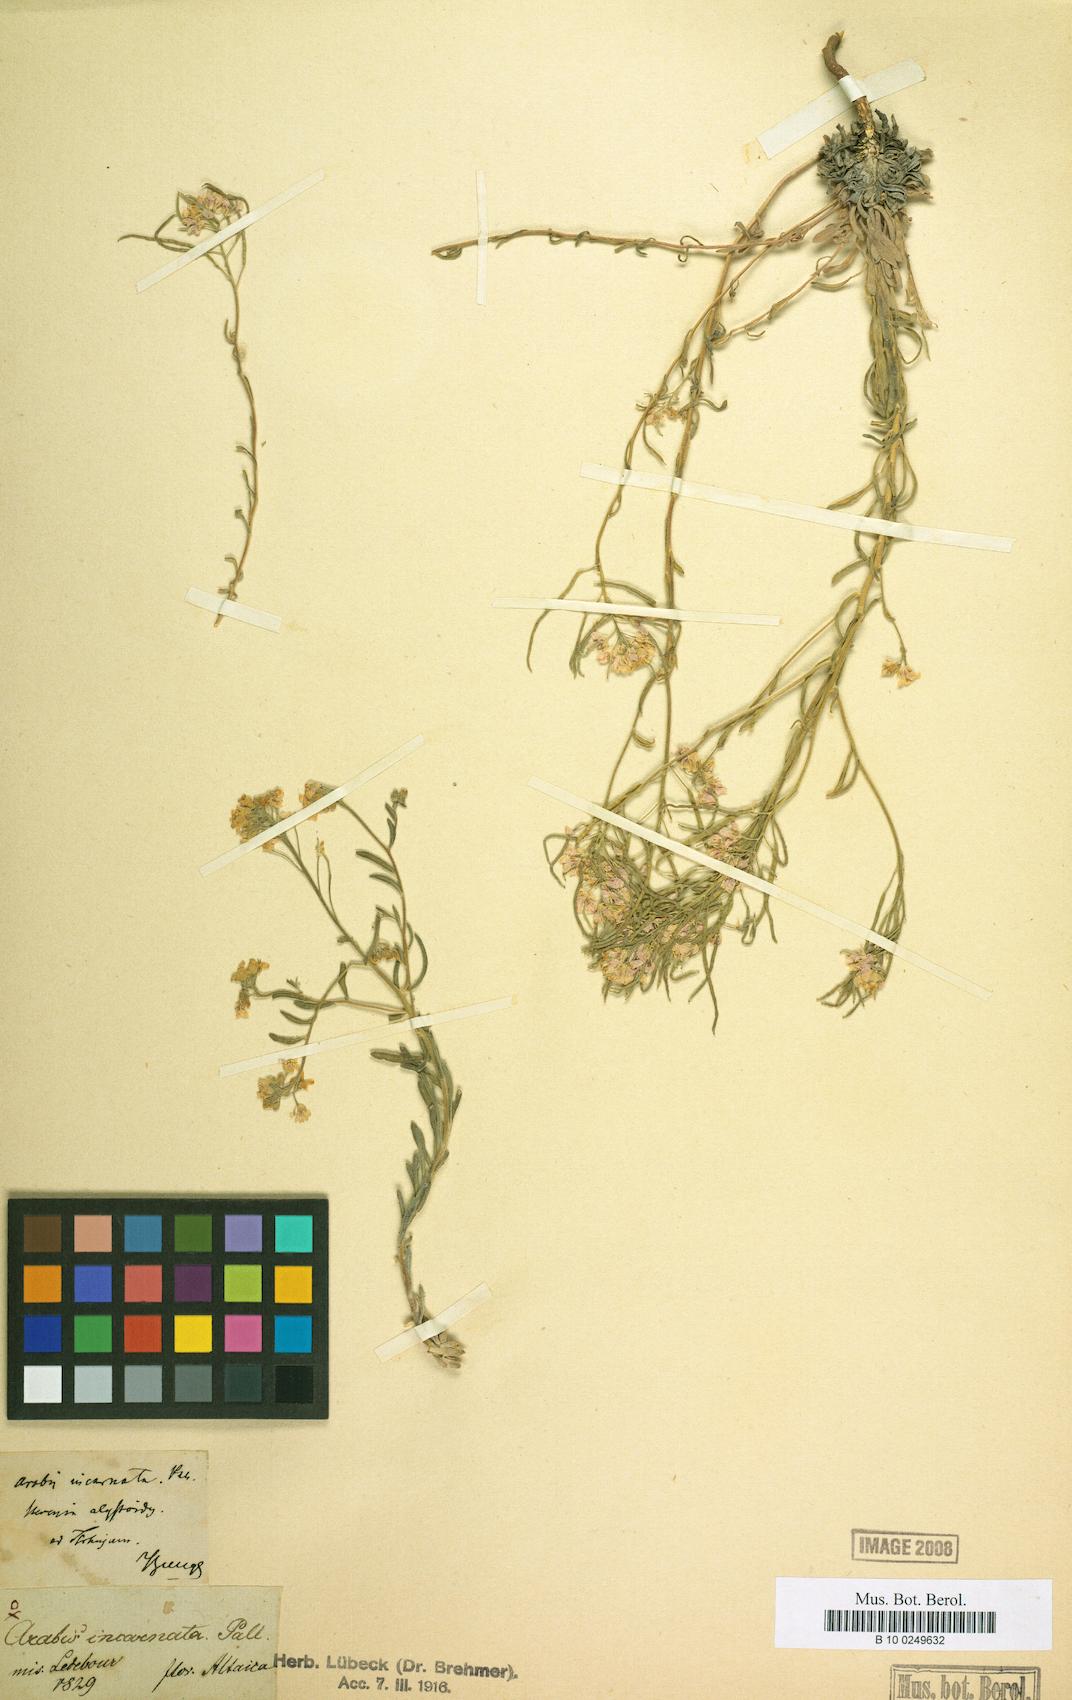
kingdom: Plantae
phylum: Tracheophyta
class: Magnoliopsida
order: Brassicales
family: Brassicaceae
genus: Stevenia
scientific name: Stevenia incarnata
